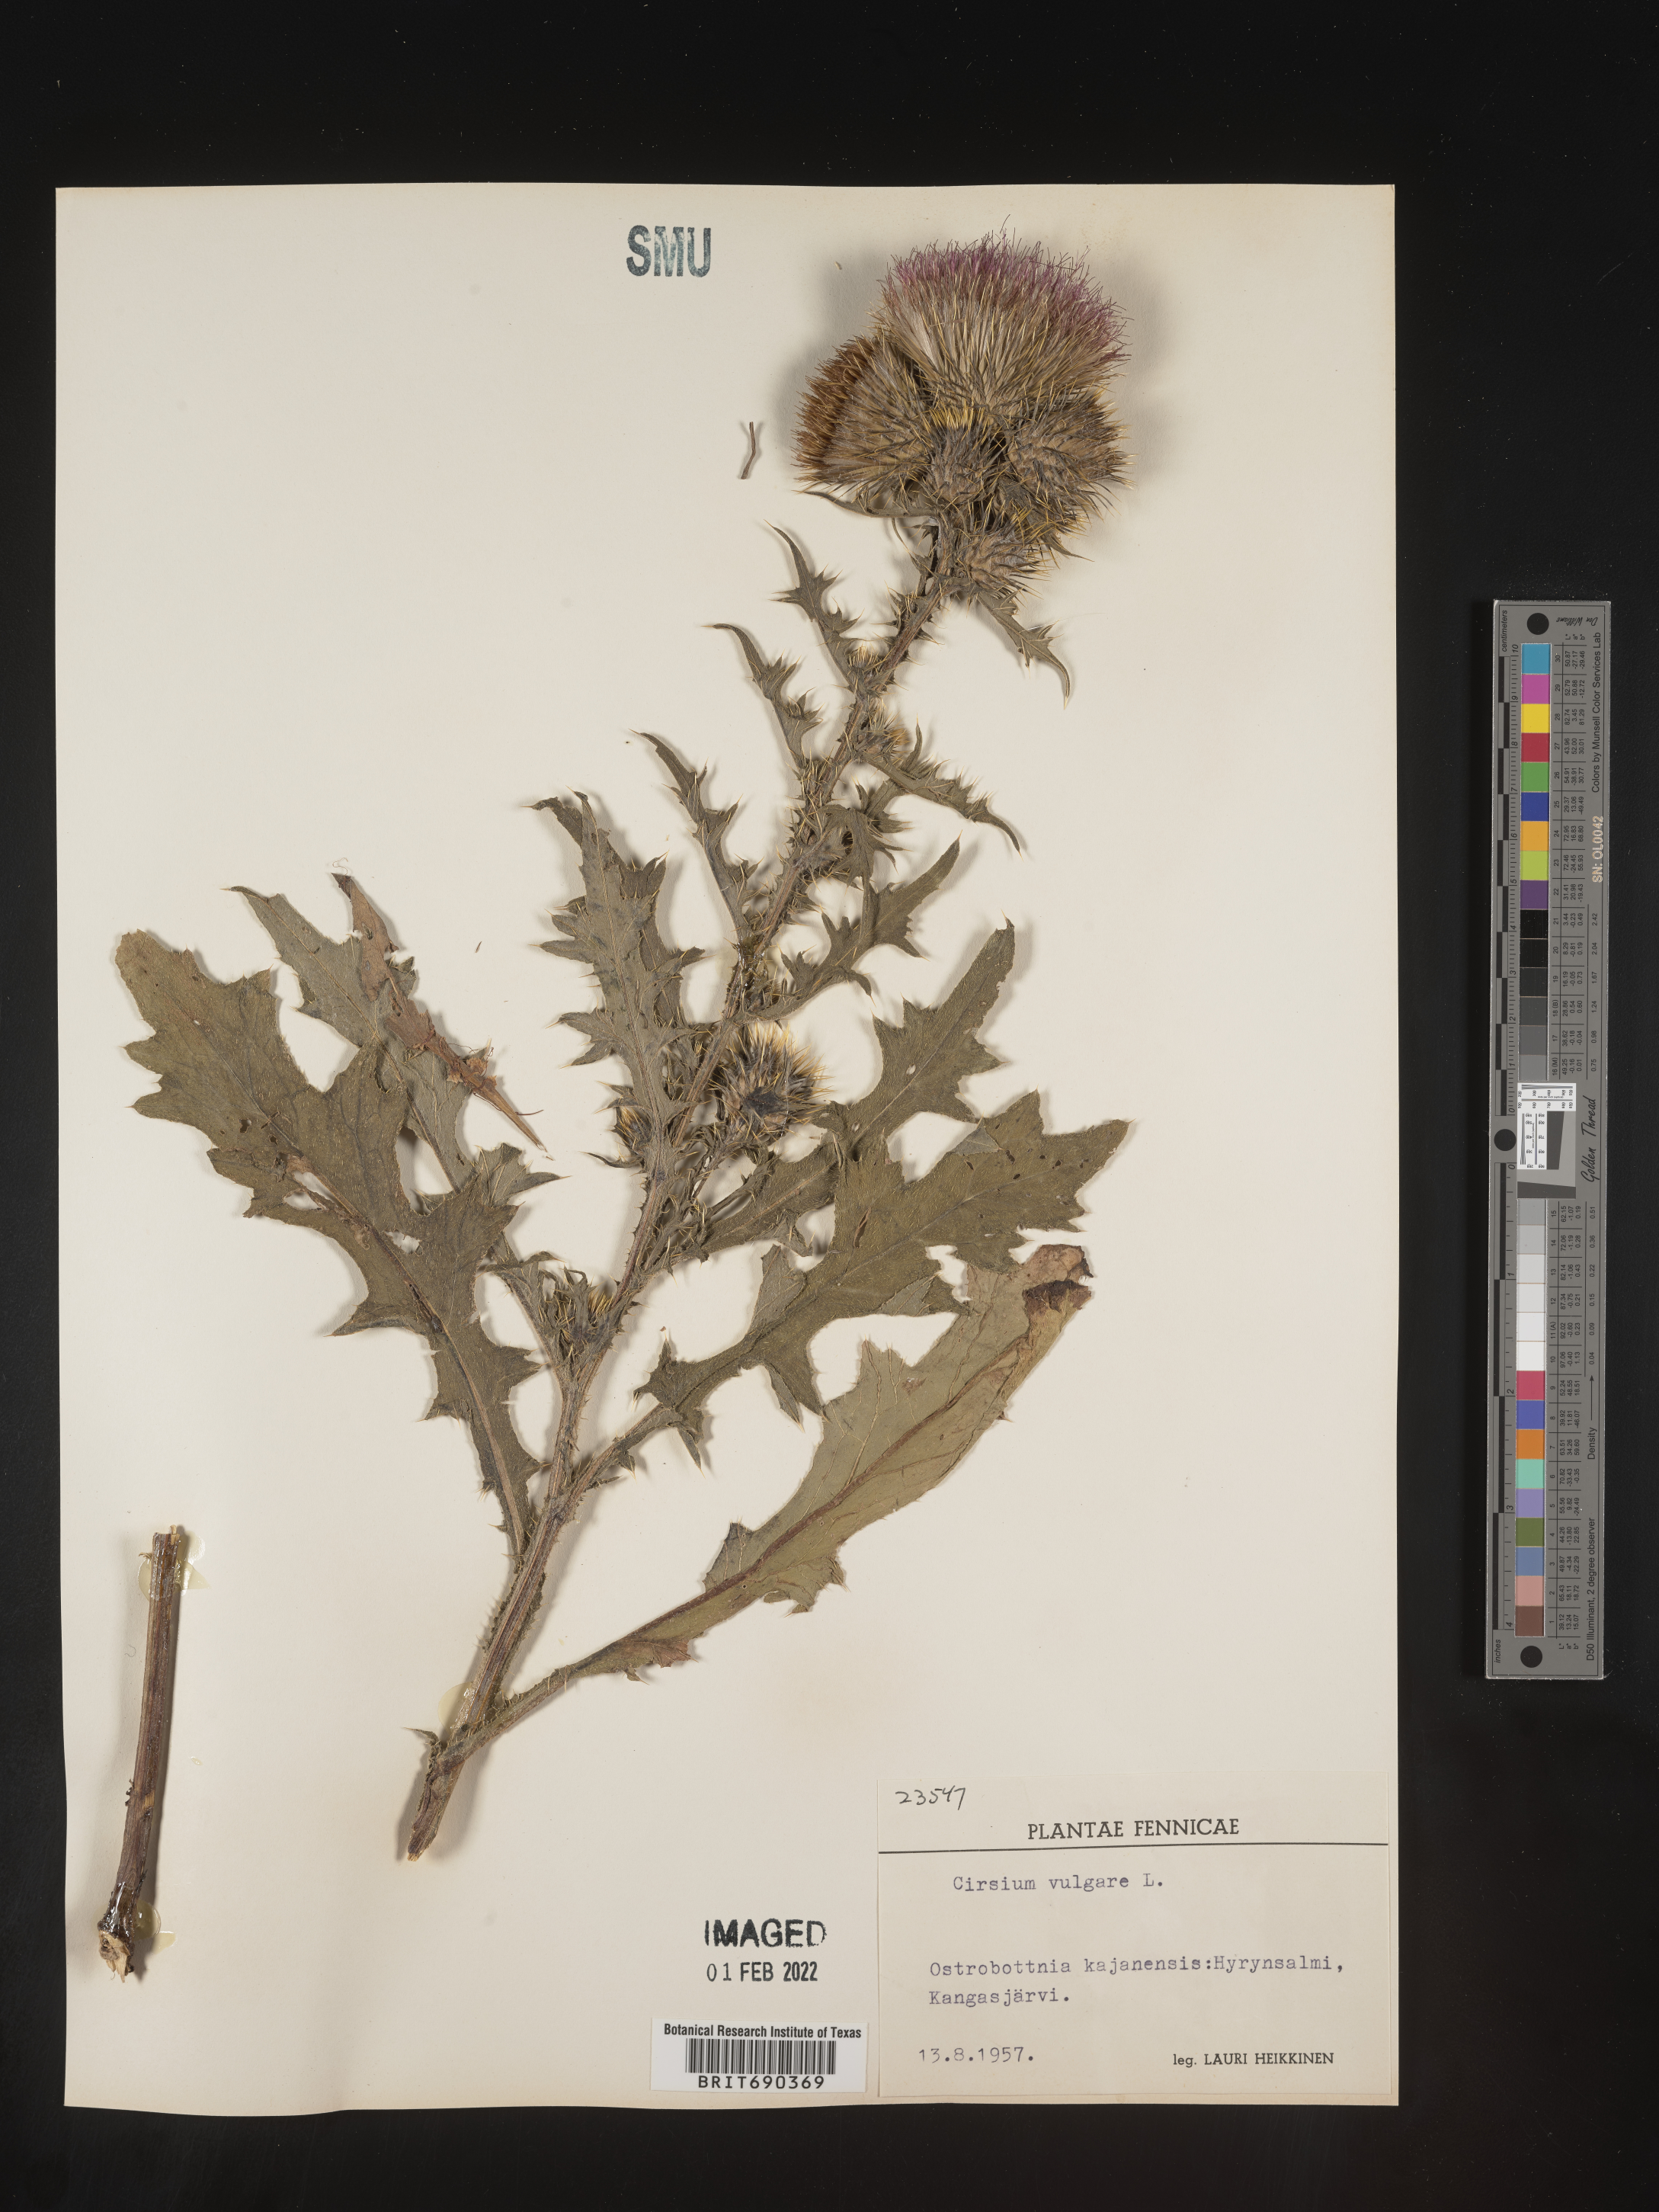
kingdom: Plantae
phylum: Tracheophyta
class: Magnoliopsida
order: Asterales
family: Asteraceae
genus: Cirsium
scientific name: Cirsium
